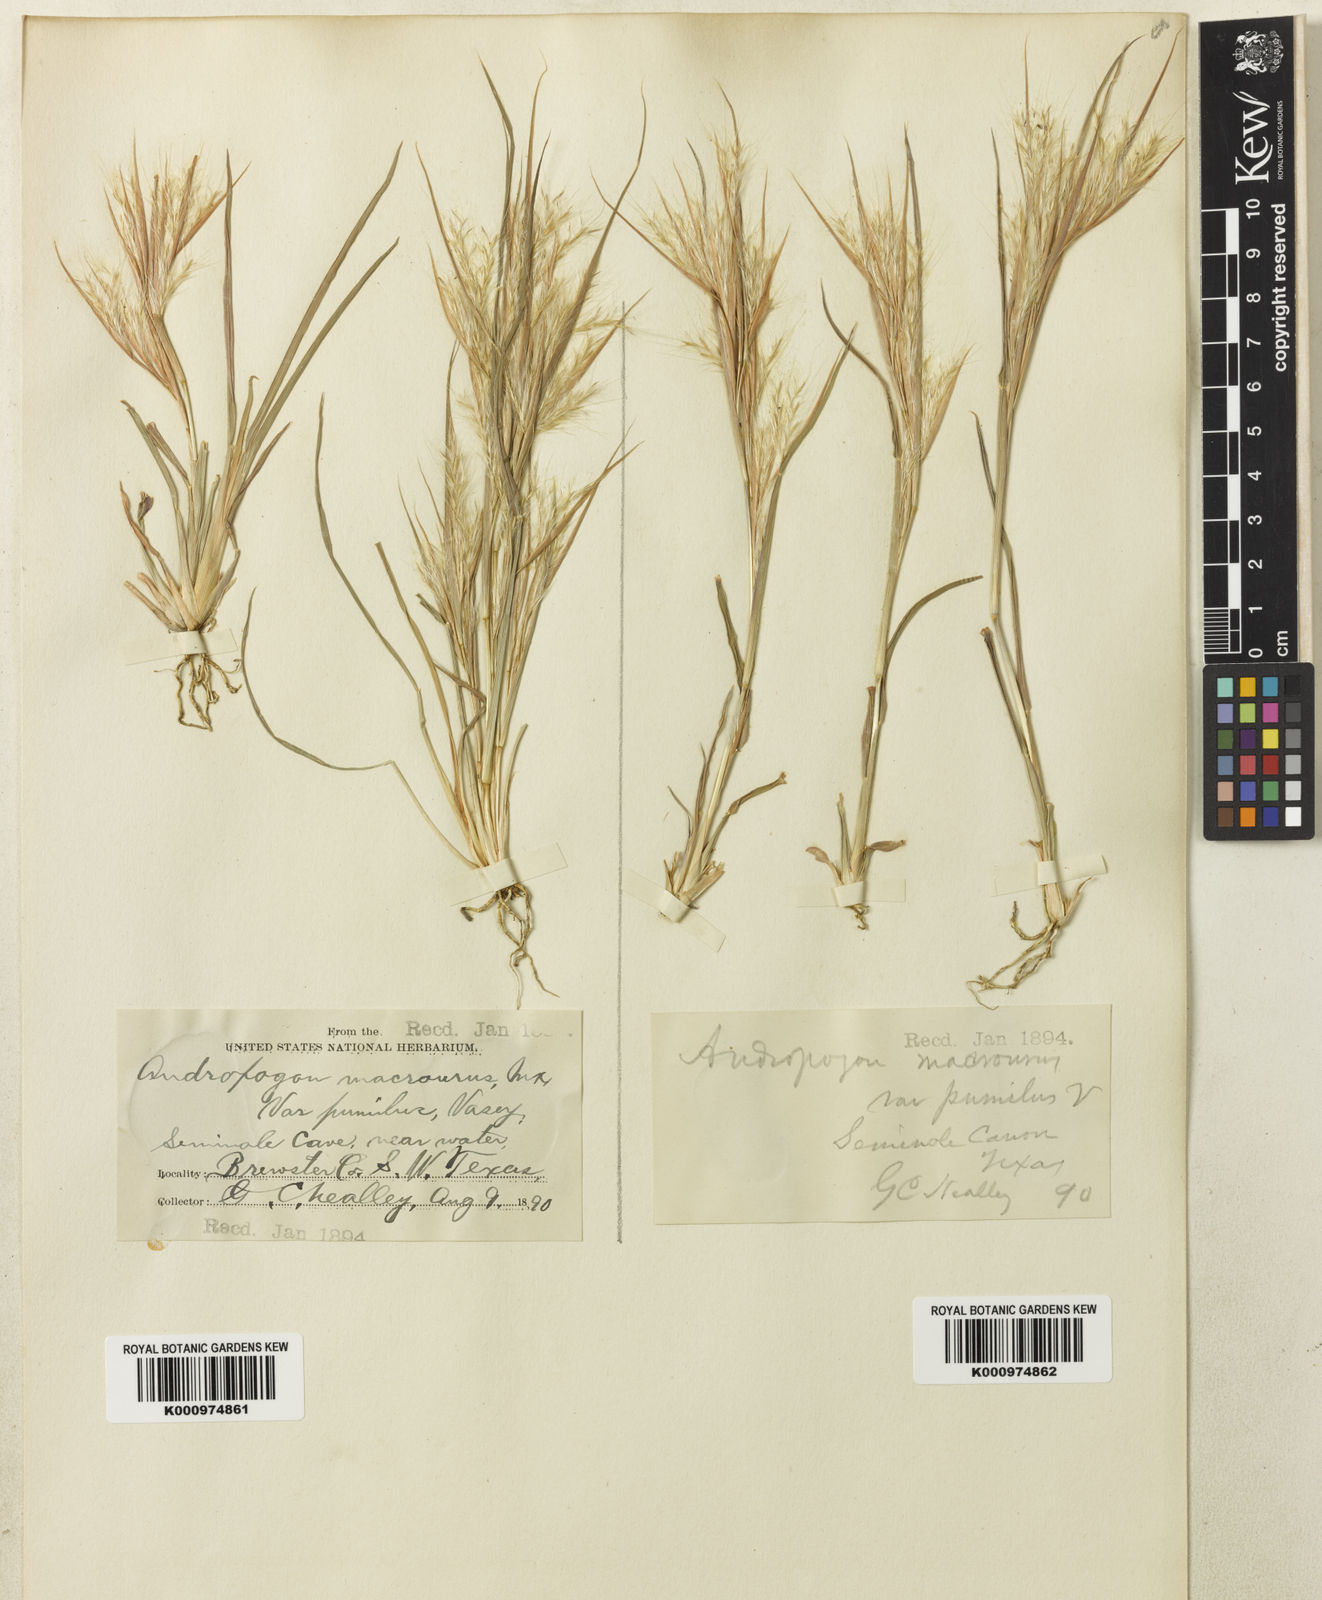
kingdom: Plantae
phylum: Tracheophyta
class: Liliopsida
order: Poales
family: Poaceae
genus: Andropogon
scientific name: Andropogon
